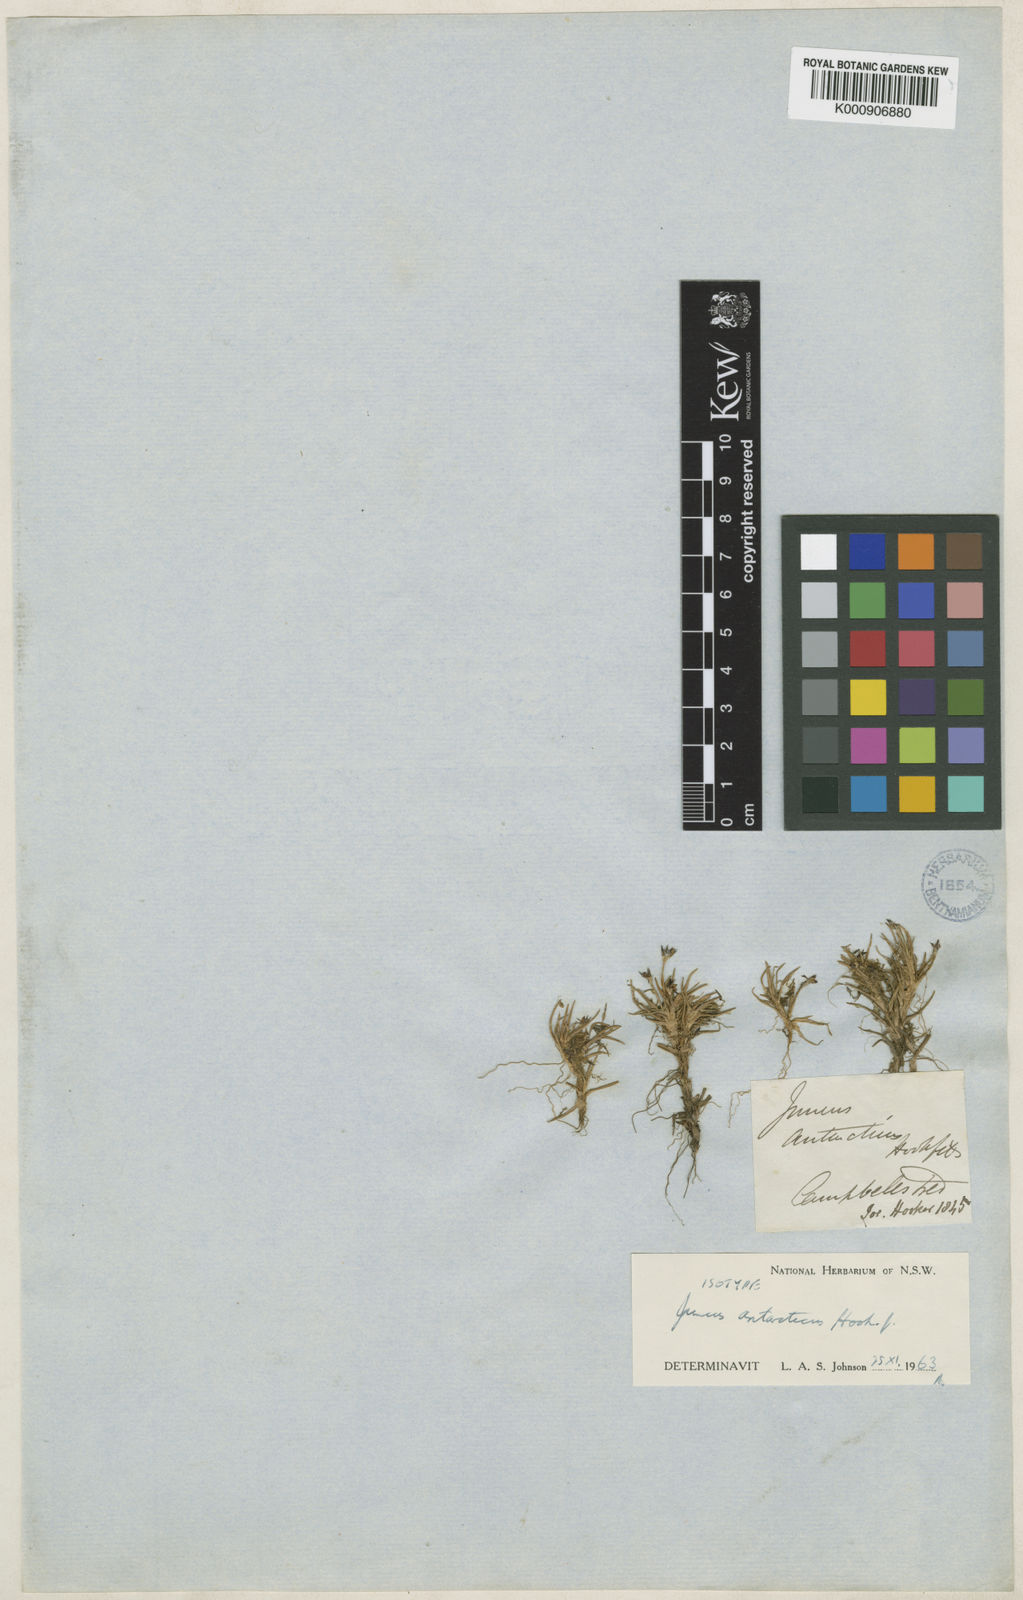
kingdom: Plantae
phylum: Tracheophyta
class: Liliopsida
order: Poales
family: Juncaceae
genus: Juncus
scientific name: Juncus antarcticus
